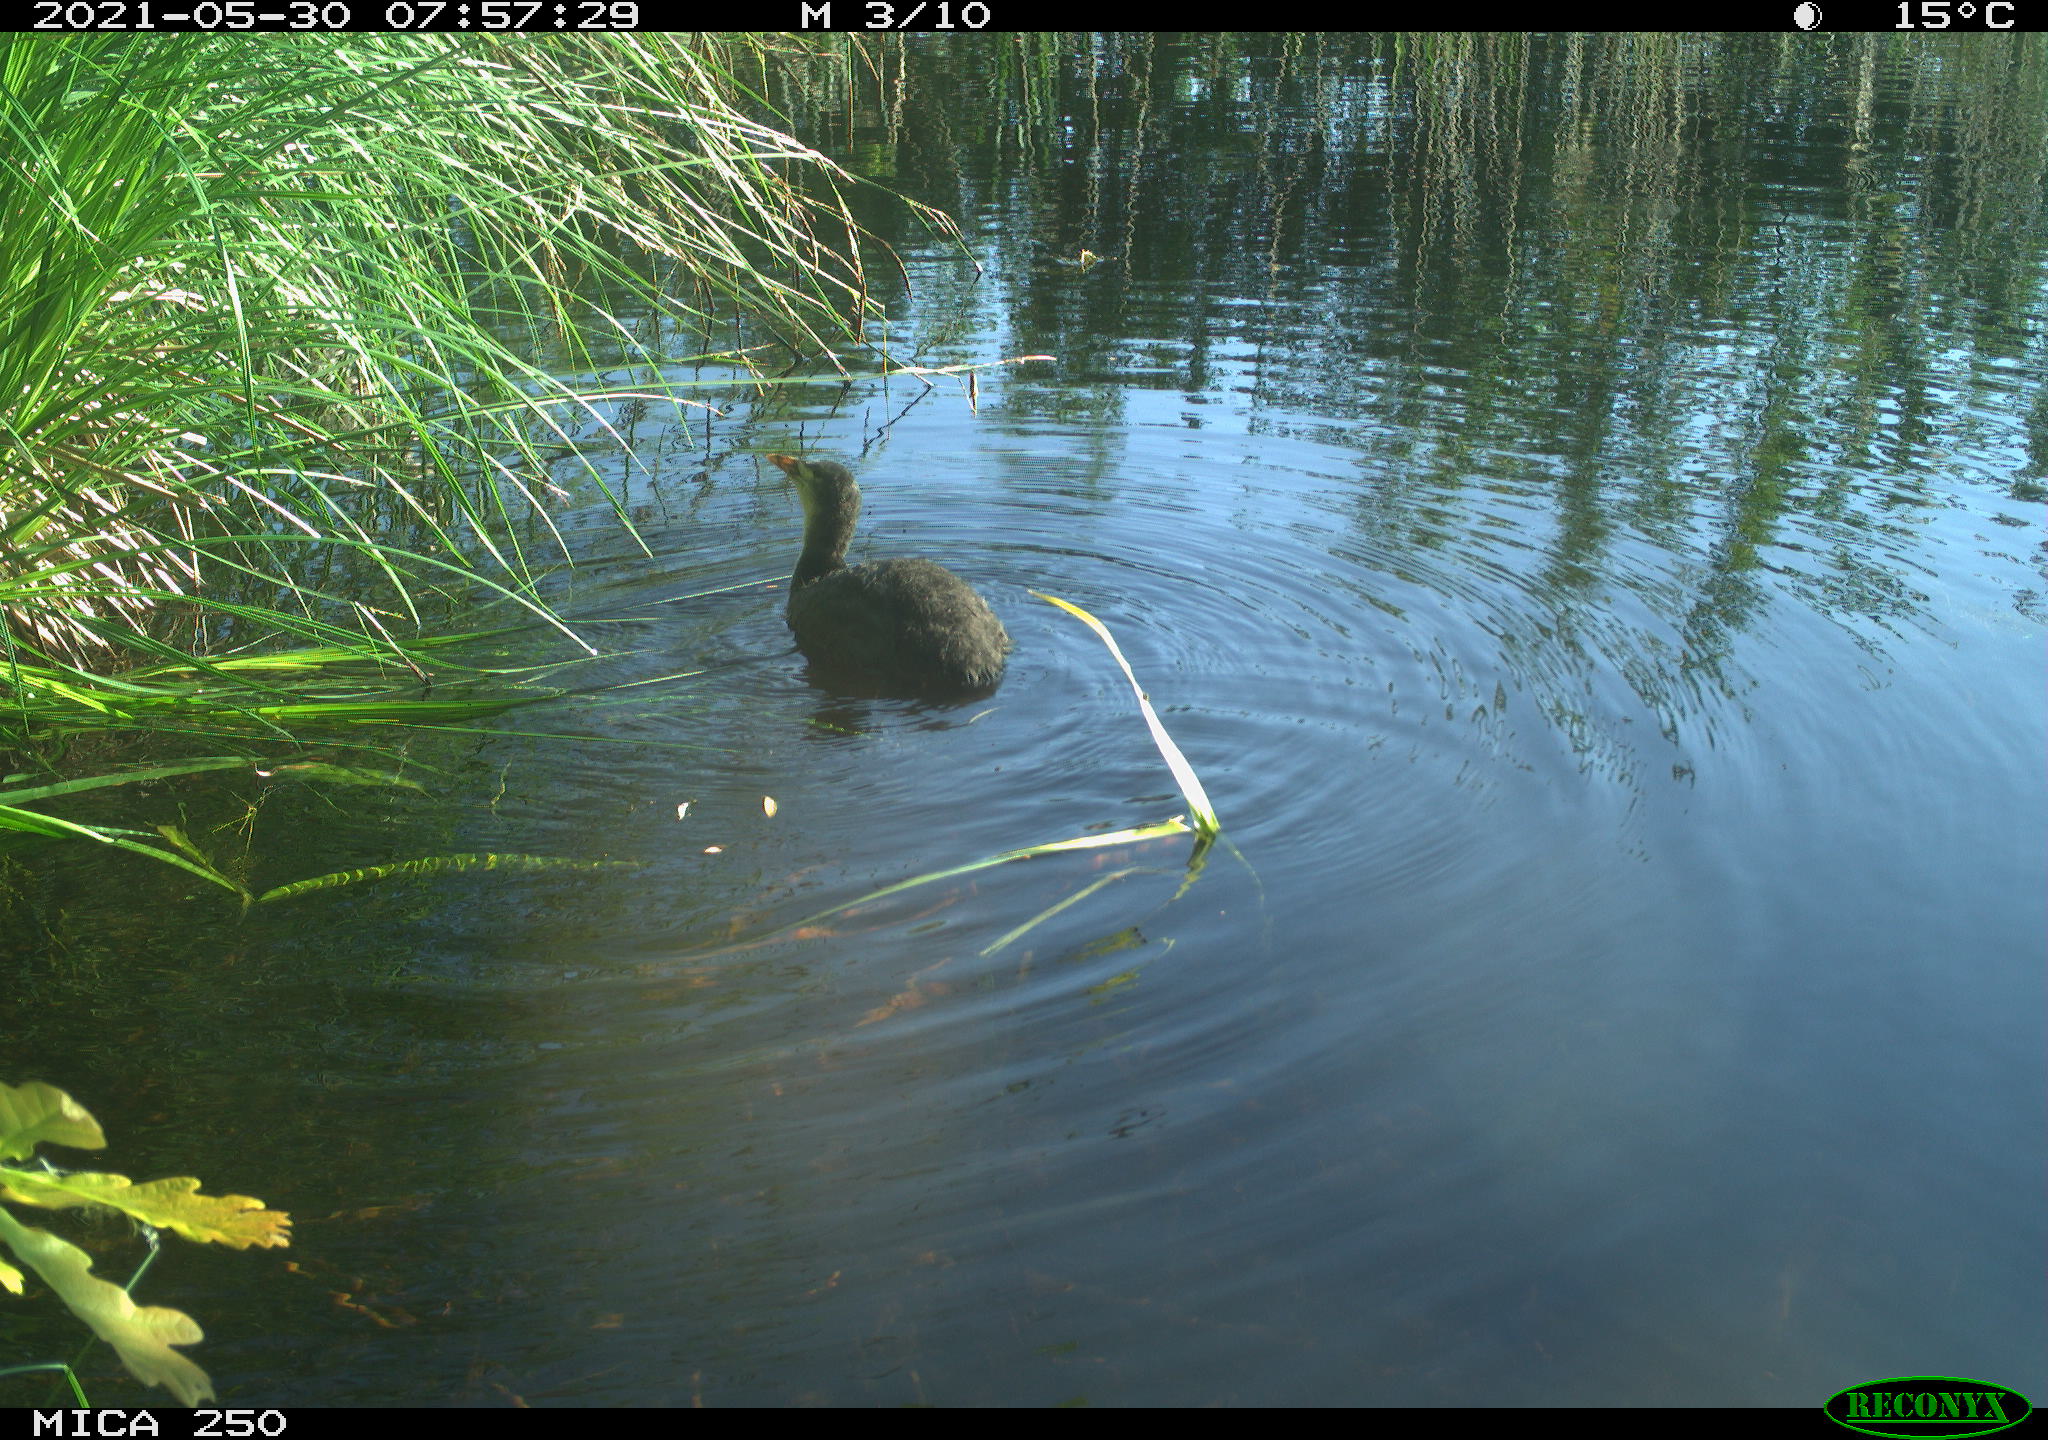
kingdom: Animalia
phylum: Chordata
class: Aves
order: Gruiformes
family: Rallidae
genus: Fulica
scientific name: Fulica atra
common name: Eurasian coot
